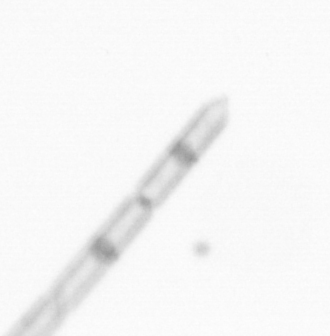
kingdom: Chromista
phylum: Ochrophyta
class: Bacillariophyceae
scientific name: Bacillariophyceae
